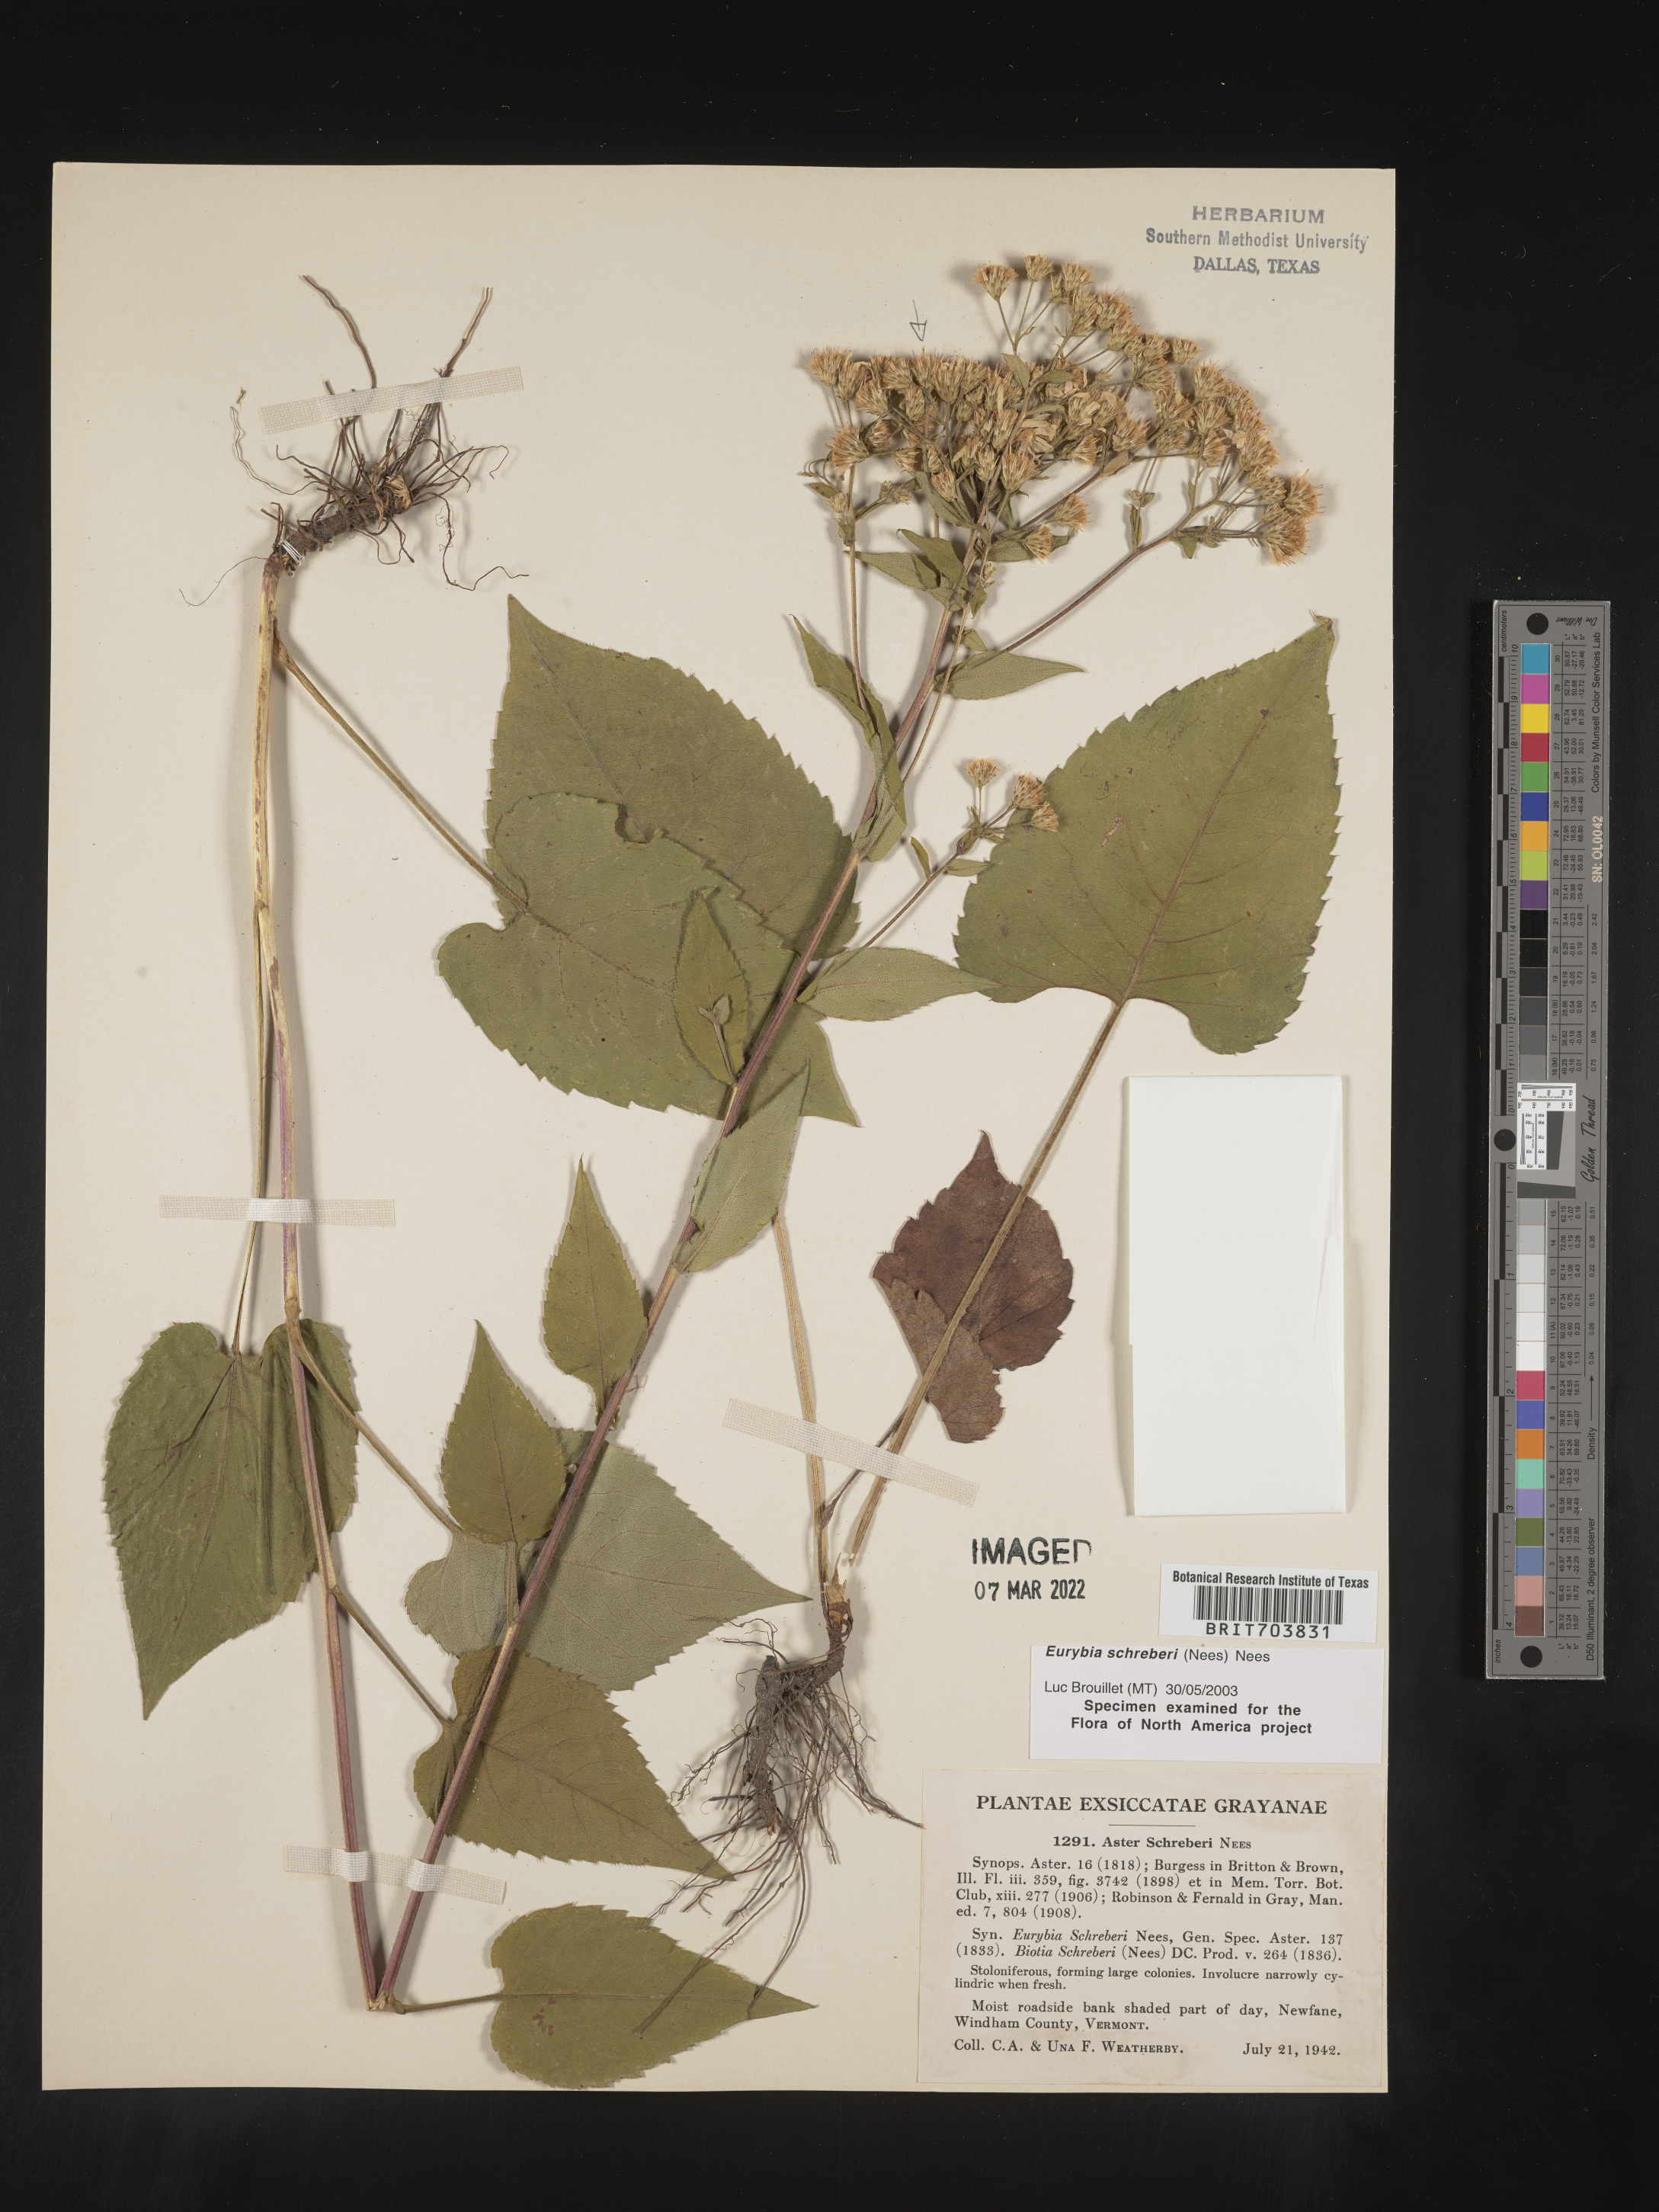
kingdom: Plantae
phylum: Tracheophyta
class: Magnoliopsida
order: Asterales
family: Asteraceae
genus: Eurybia
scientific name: Eurybia schreberi
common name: Schreber's aster
